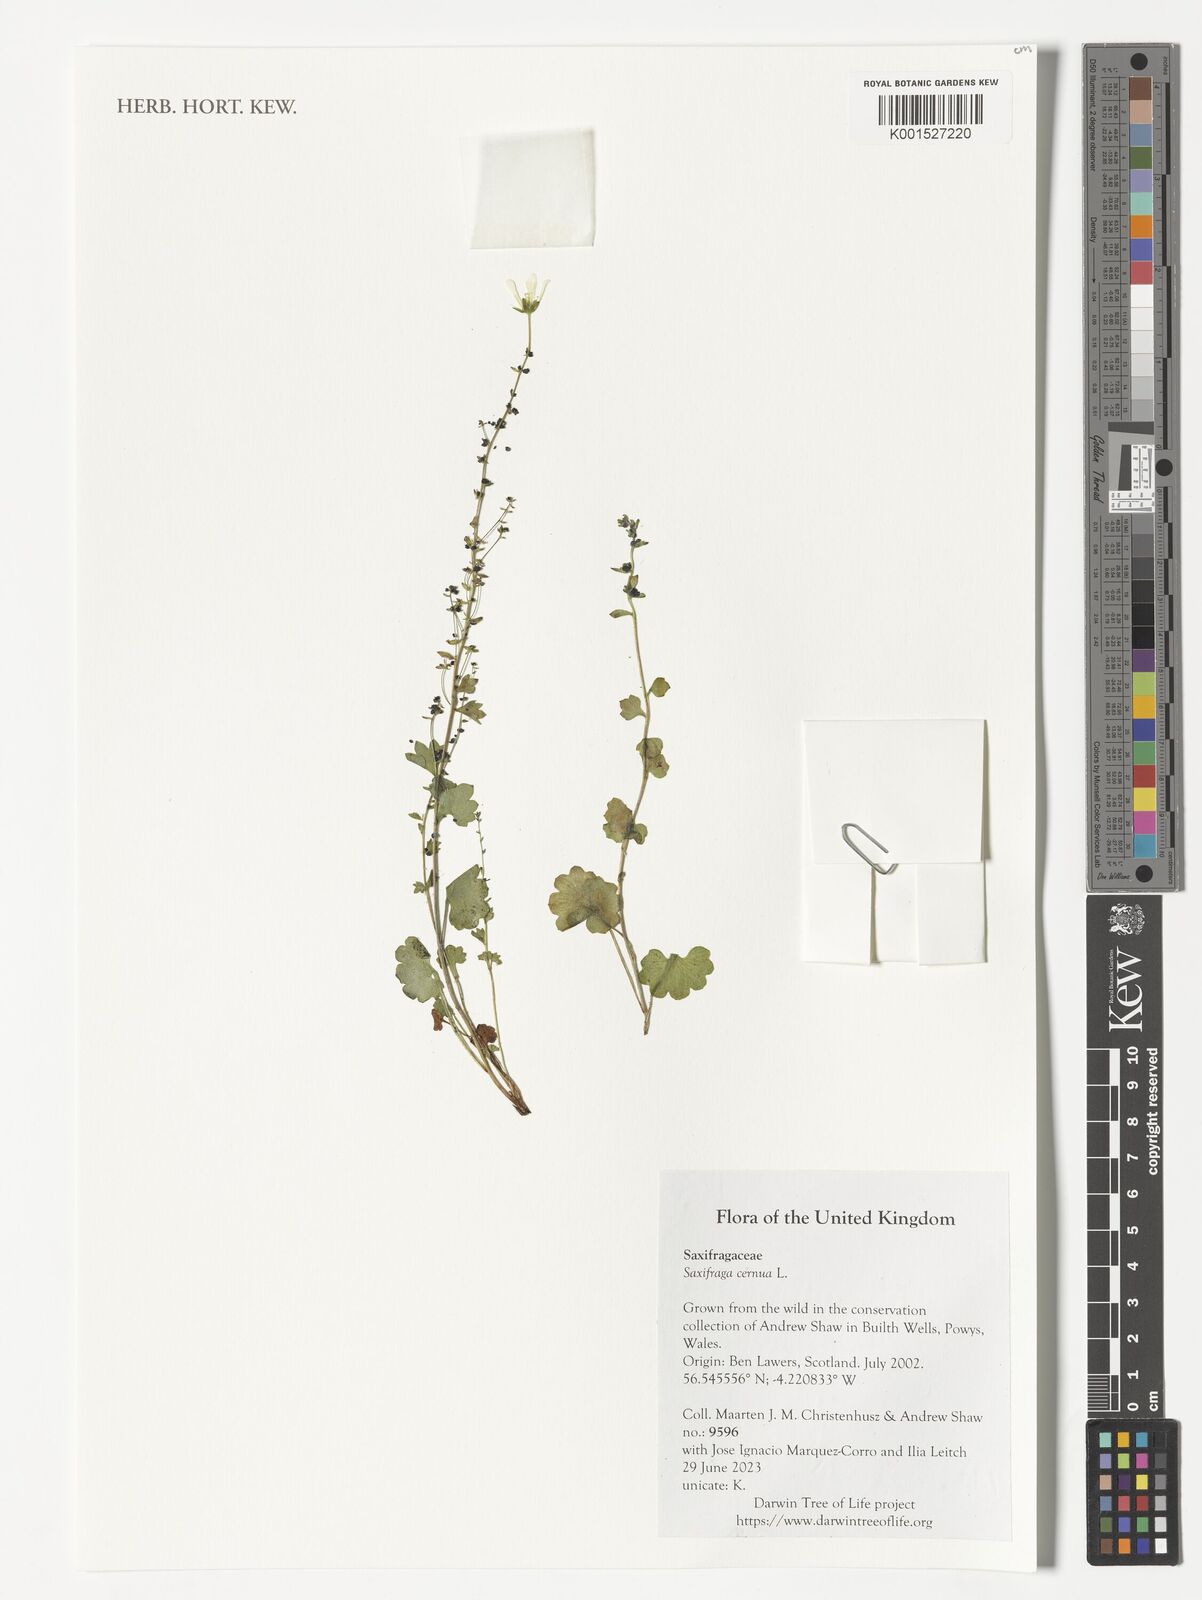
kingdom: Plantae
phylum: Tracheophyta
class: Magnoliopsida
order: Saxifragales
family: Saxifragaceae
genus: Saxifraga
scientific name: Saxifraga cernua
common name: Drooping saxifrage
